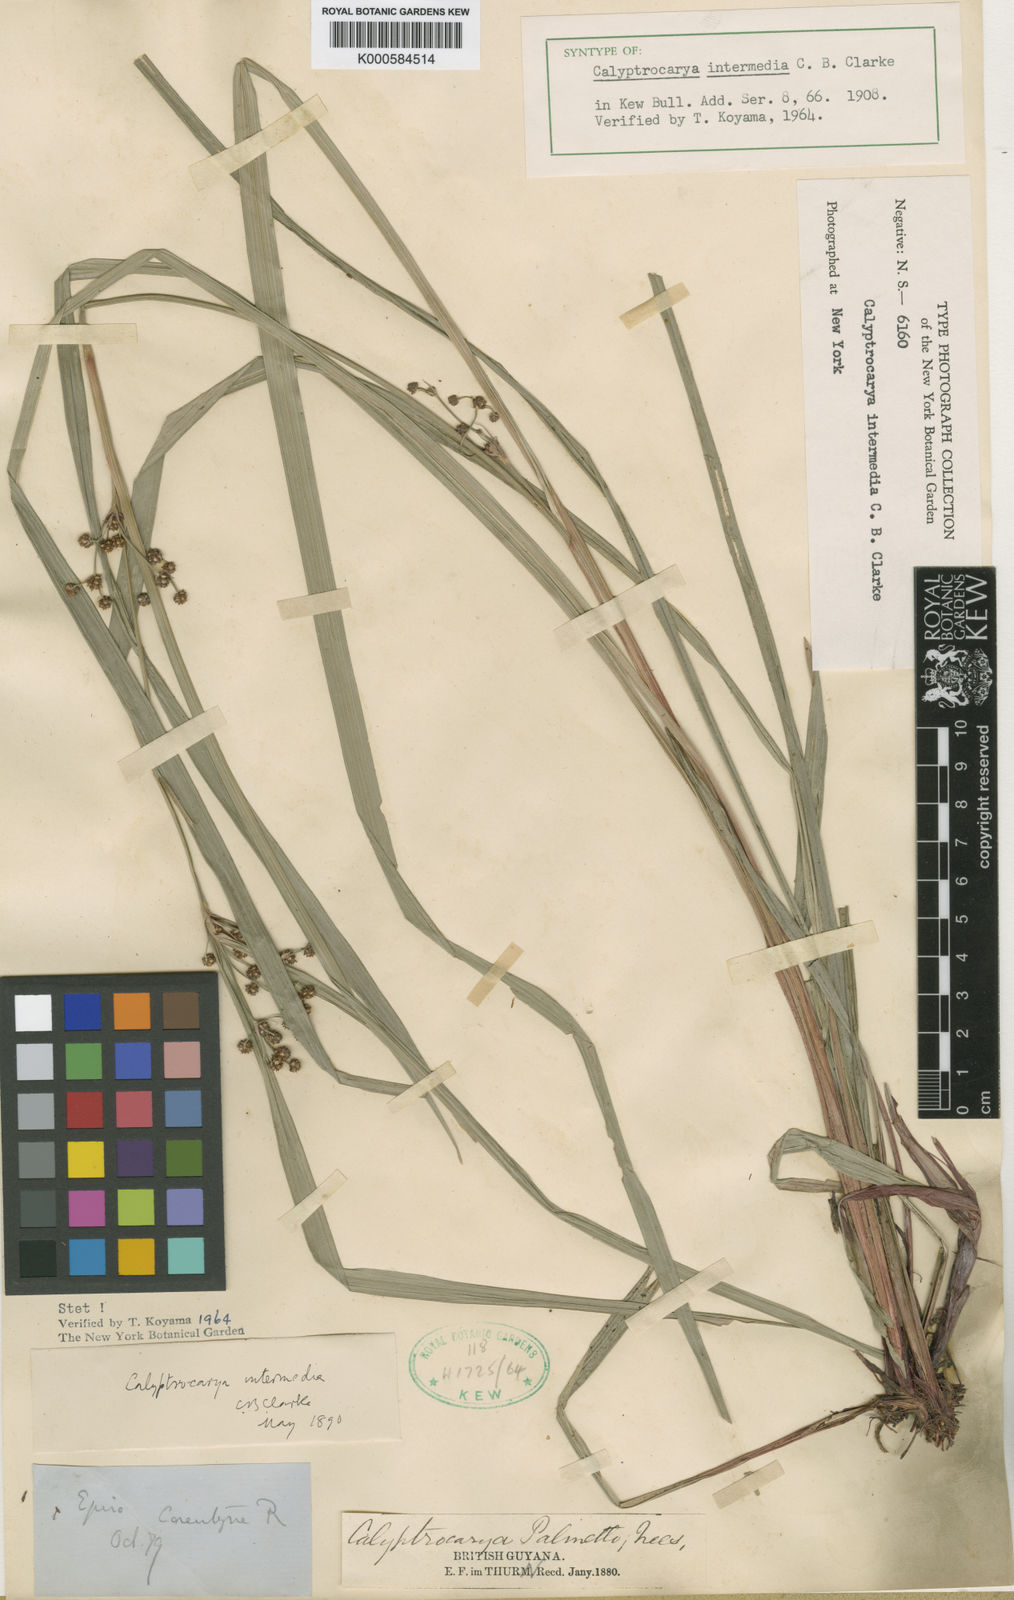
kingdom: Plantae
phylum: Tracheophyta
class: Liliopsida
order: Poales
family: Cyperaceae
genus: Calyptrocarya
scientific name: Calyptrocarya glomerulata
